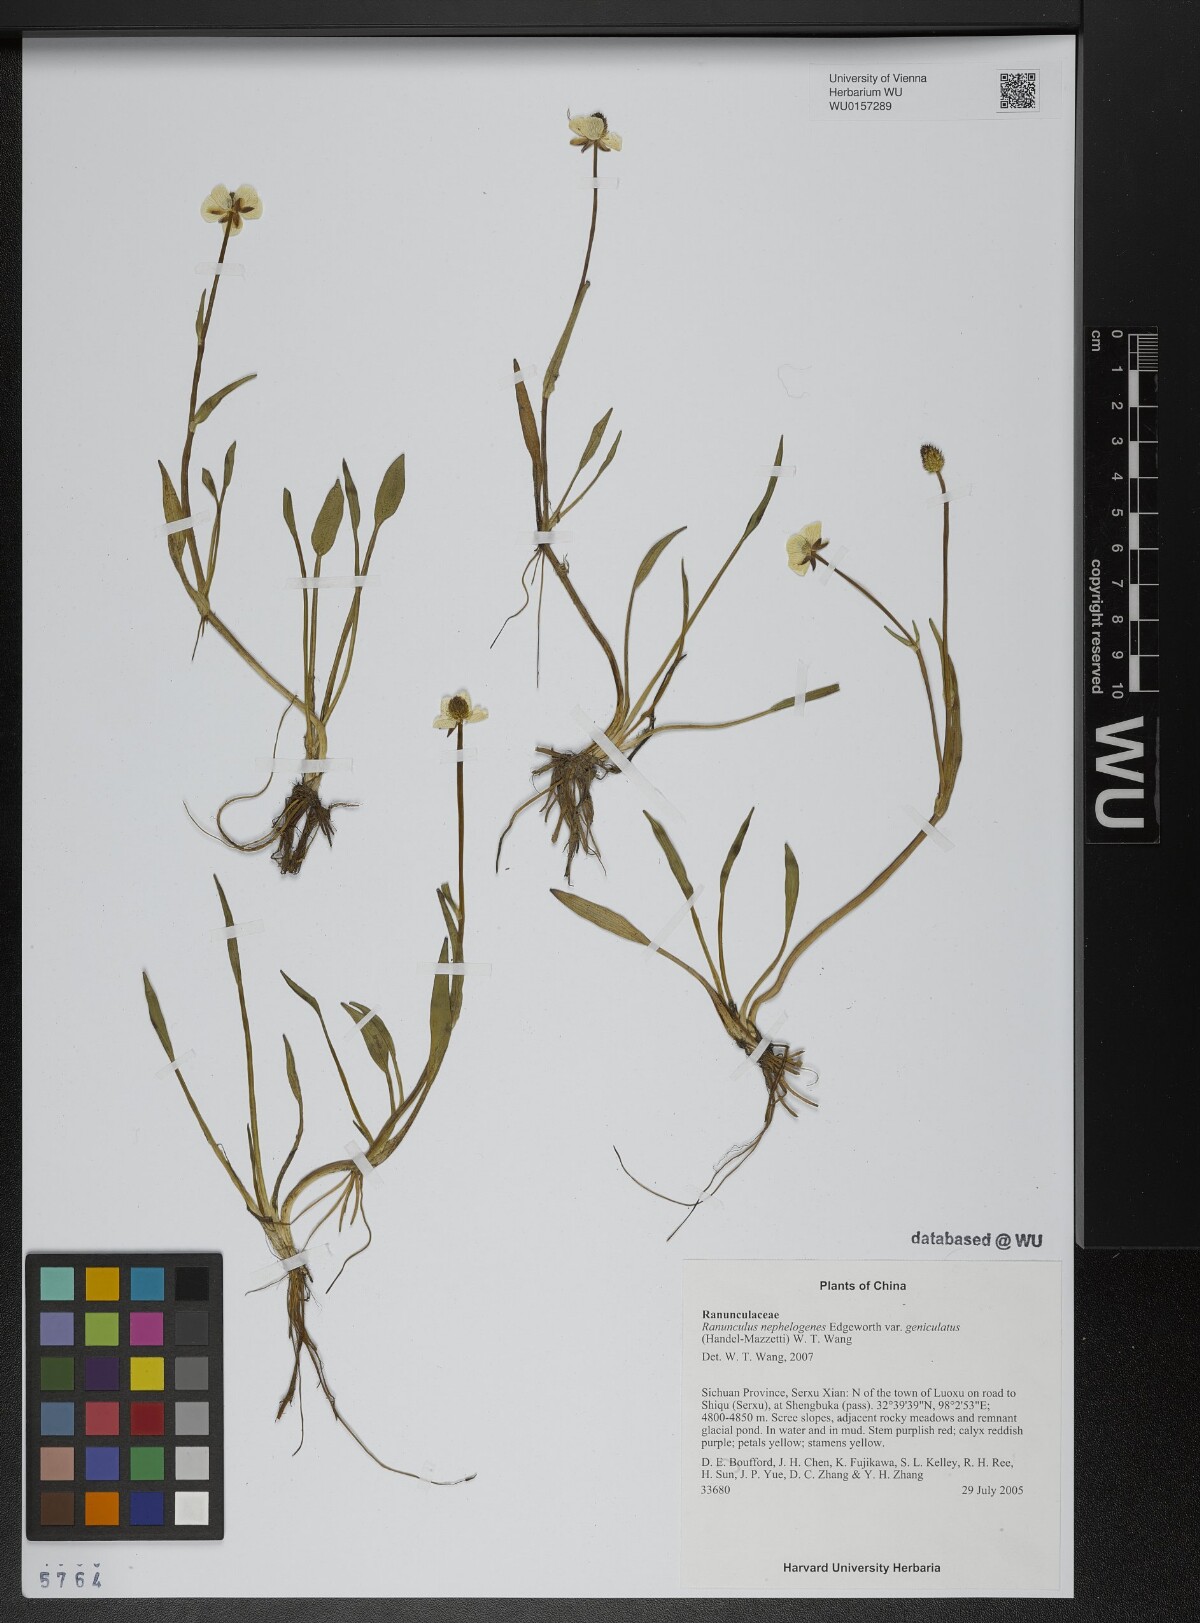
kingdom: Plantae
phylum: Tracheophyta
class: Magnoliopsida
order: Ranunculales
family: Ranunculaceae
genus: Ranunculus
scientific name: Ranunculus mazzettii
